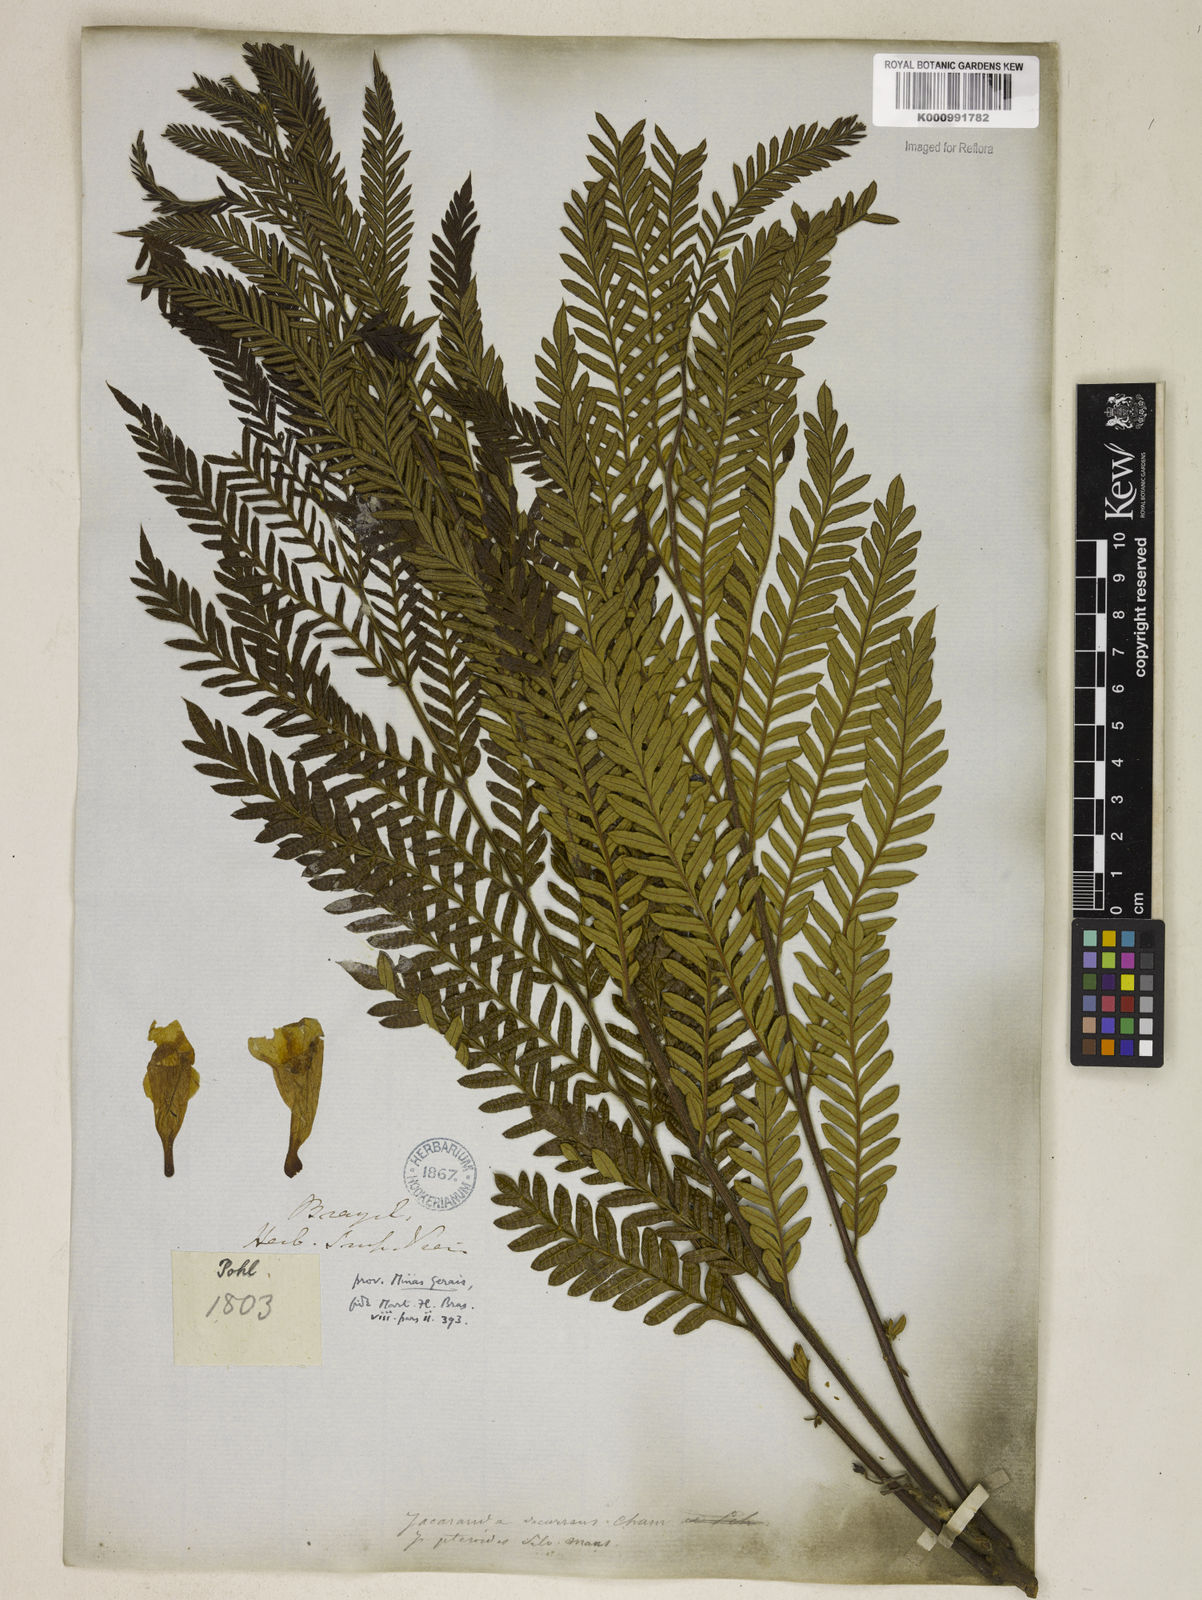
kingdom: Plantae
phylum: Tracheophyta
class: Magnoliopsida
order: Lamiales
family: Bignoniaceae
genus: Jacaranda
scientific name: Jacaranda decurrens
